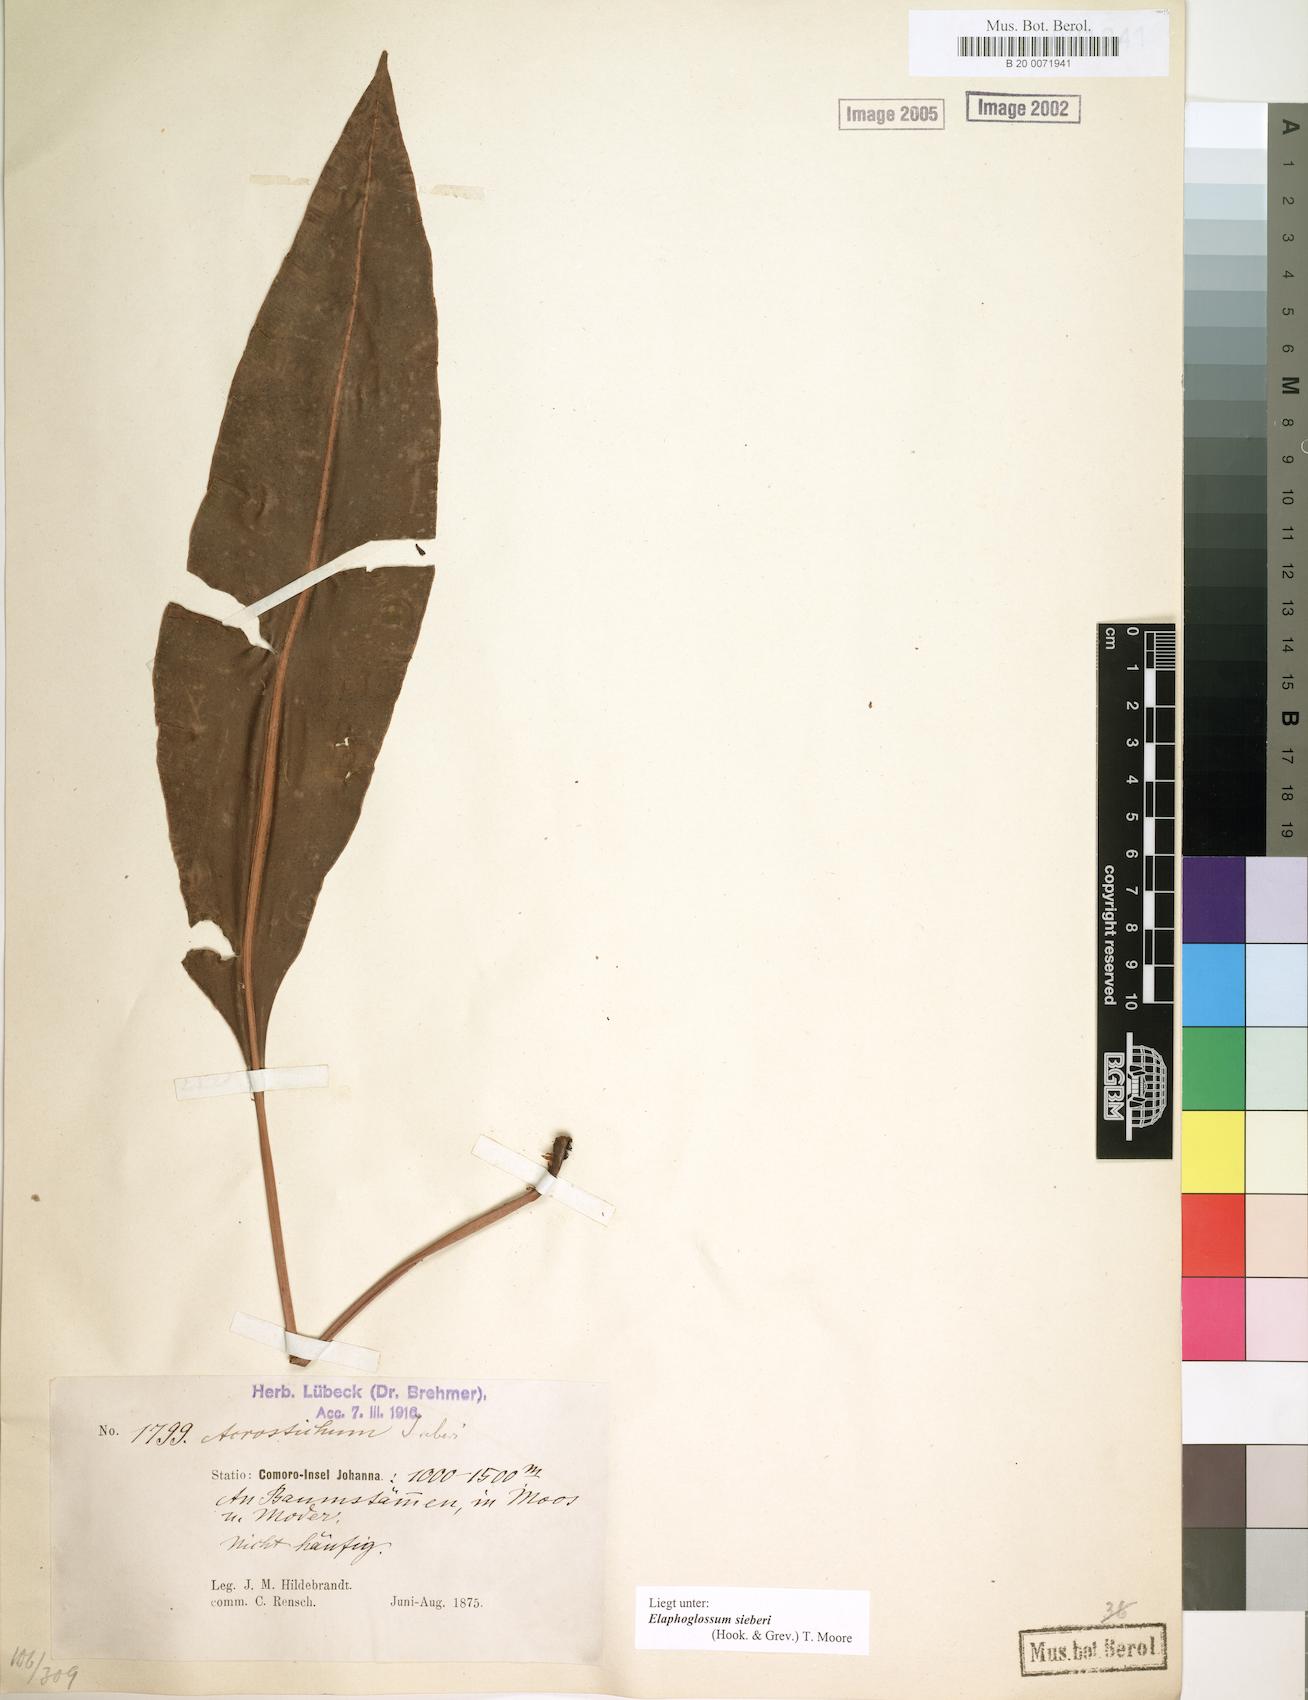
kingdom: Plantae
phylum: Tracheophyta
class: Polypodiopsida
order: Polypodiales
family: Dryopteridaceae
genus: Elaphoglossum
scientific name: Elaphoglossum sieberi
